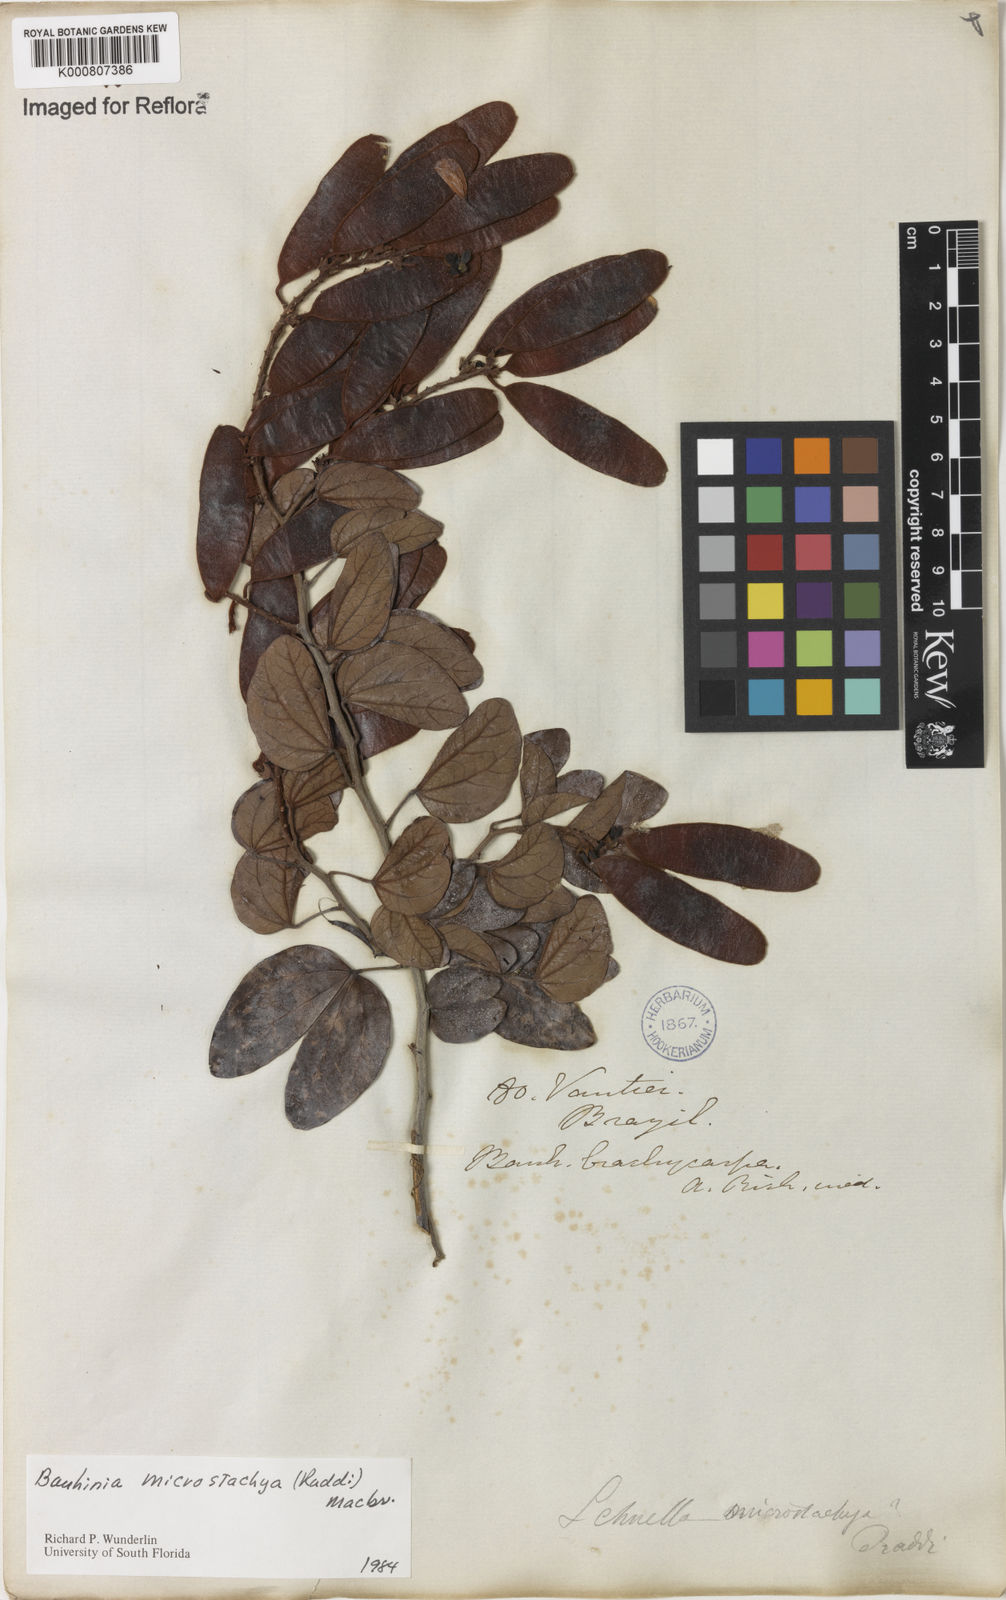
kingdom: Plantae
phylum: Tracheophyta
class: Magnoliopsida
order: Fabales
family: Fabaceae
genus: Schnella
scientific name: Schnella microstachya
